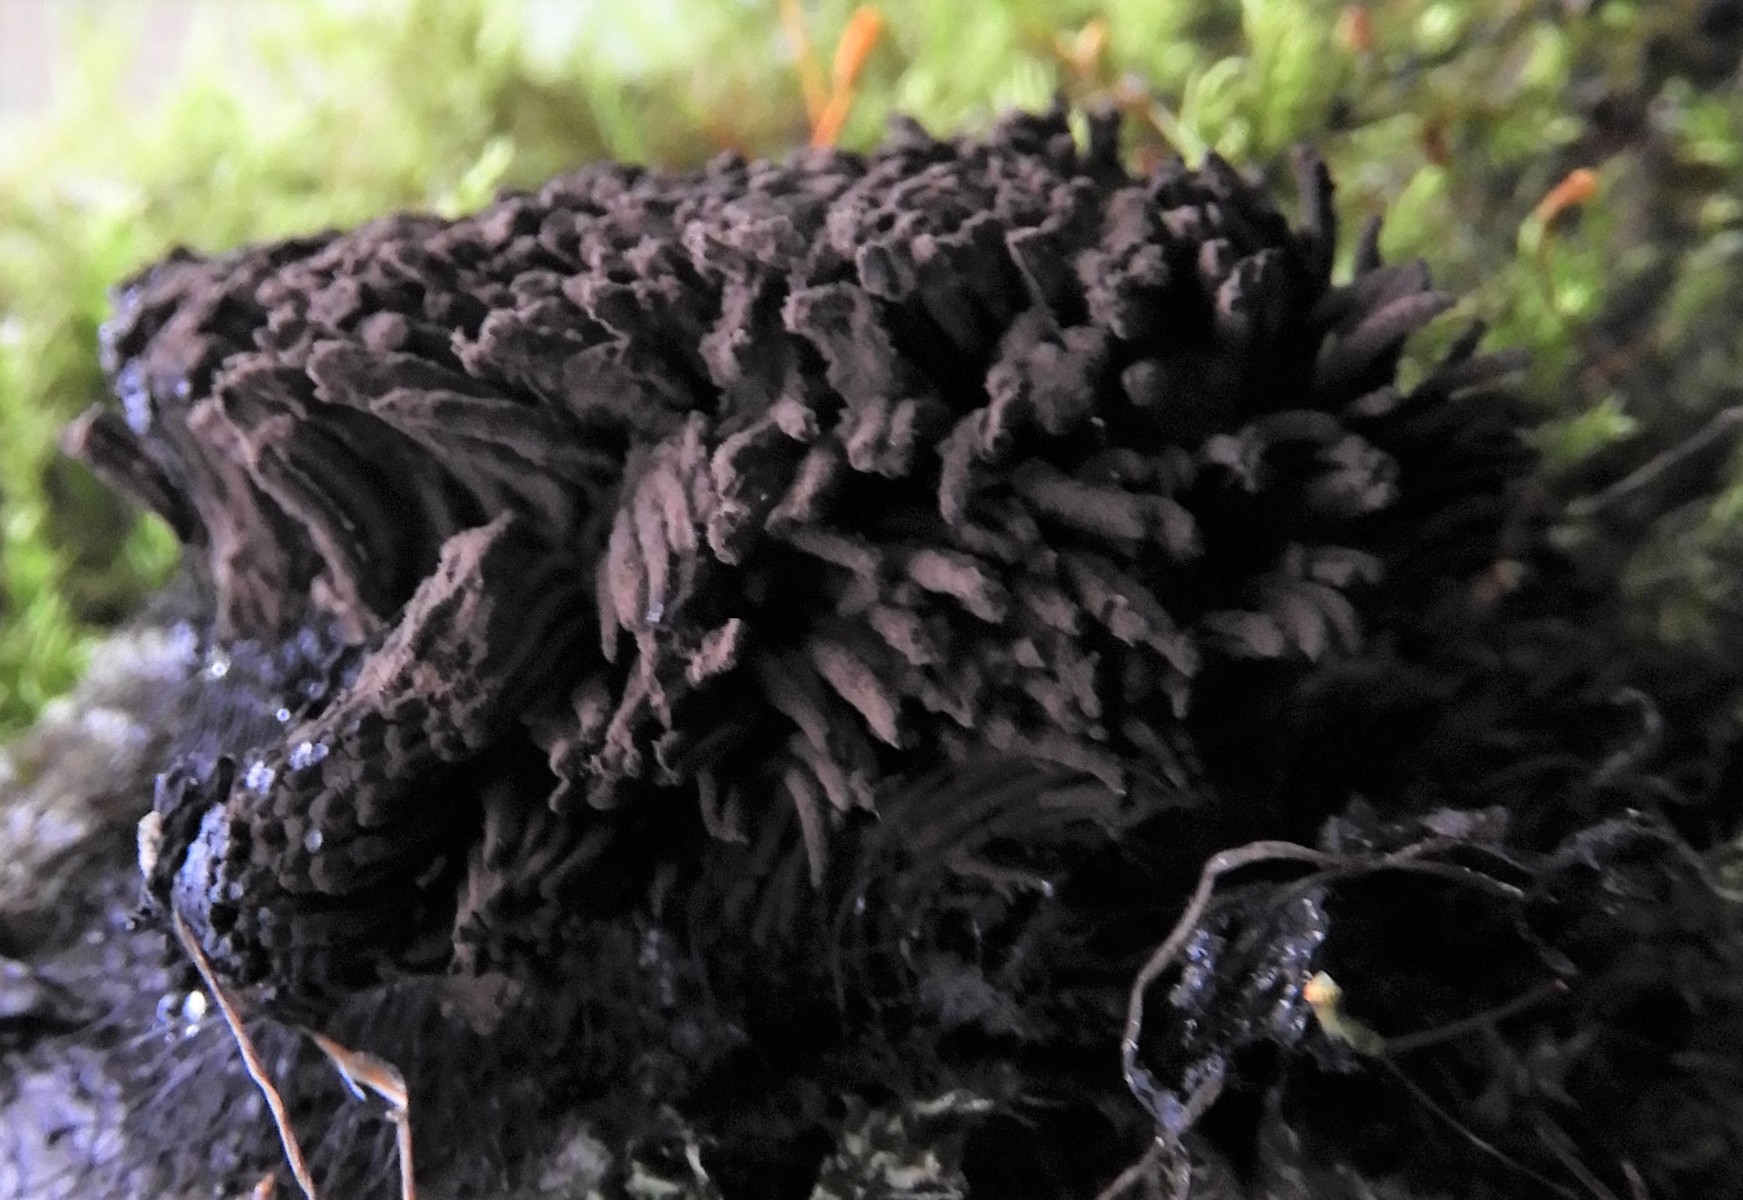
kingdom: Protozoa
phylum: Mycetozoa
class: Myxomycetes
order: Stemonitidales
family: Stemonitidaceae
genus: Stemonitis
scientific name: Stemonitis
